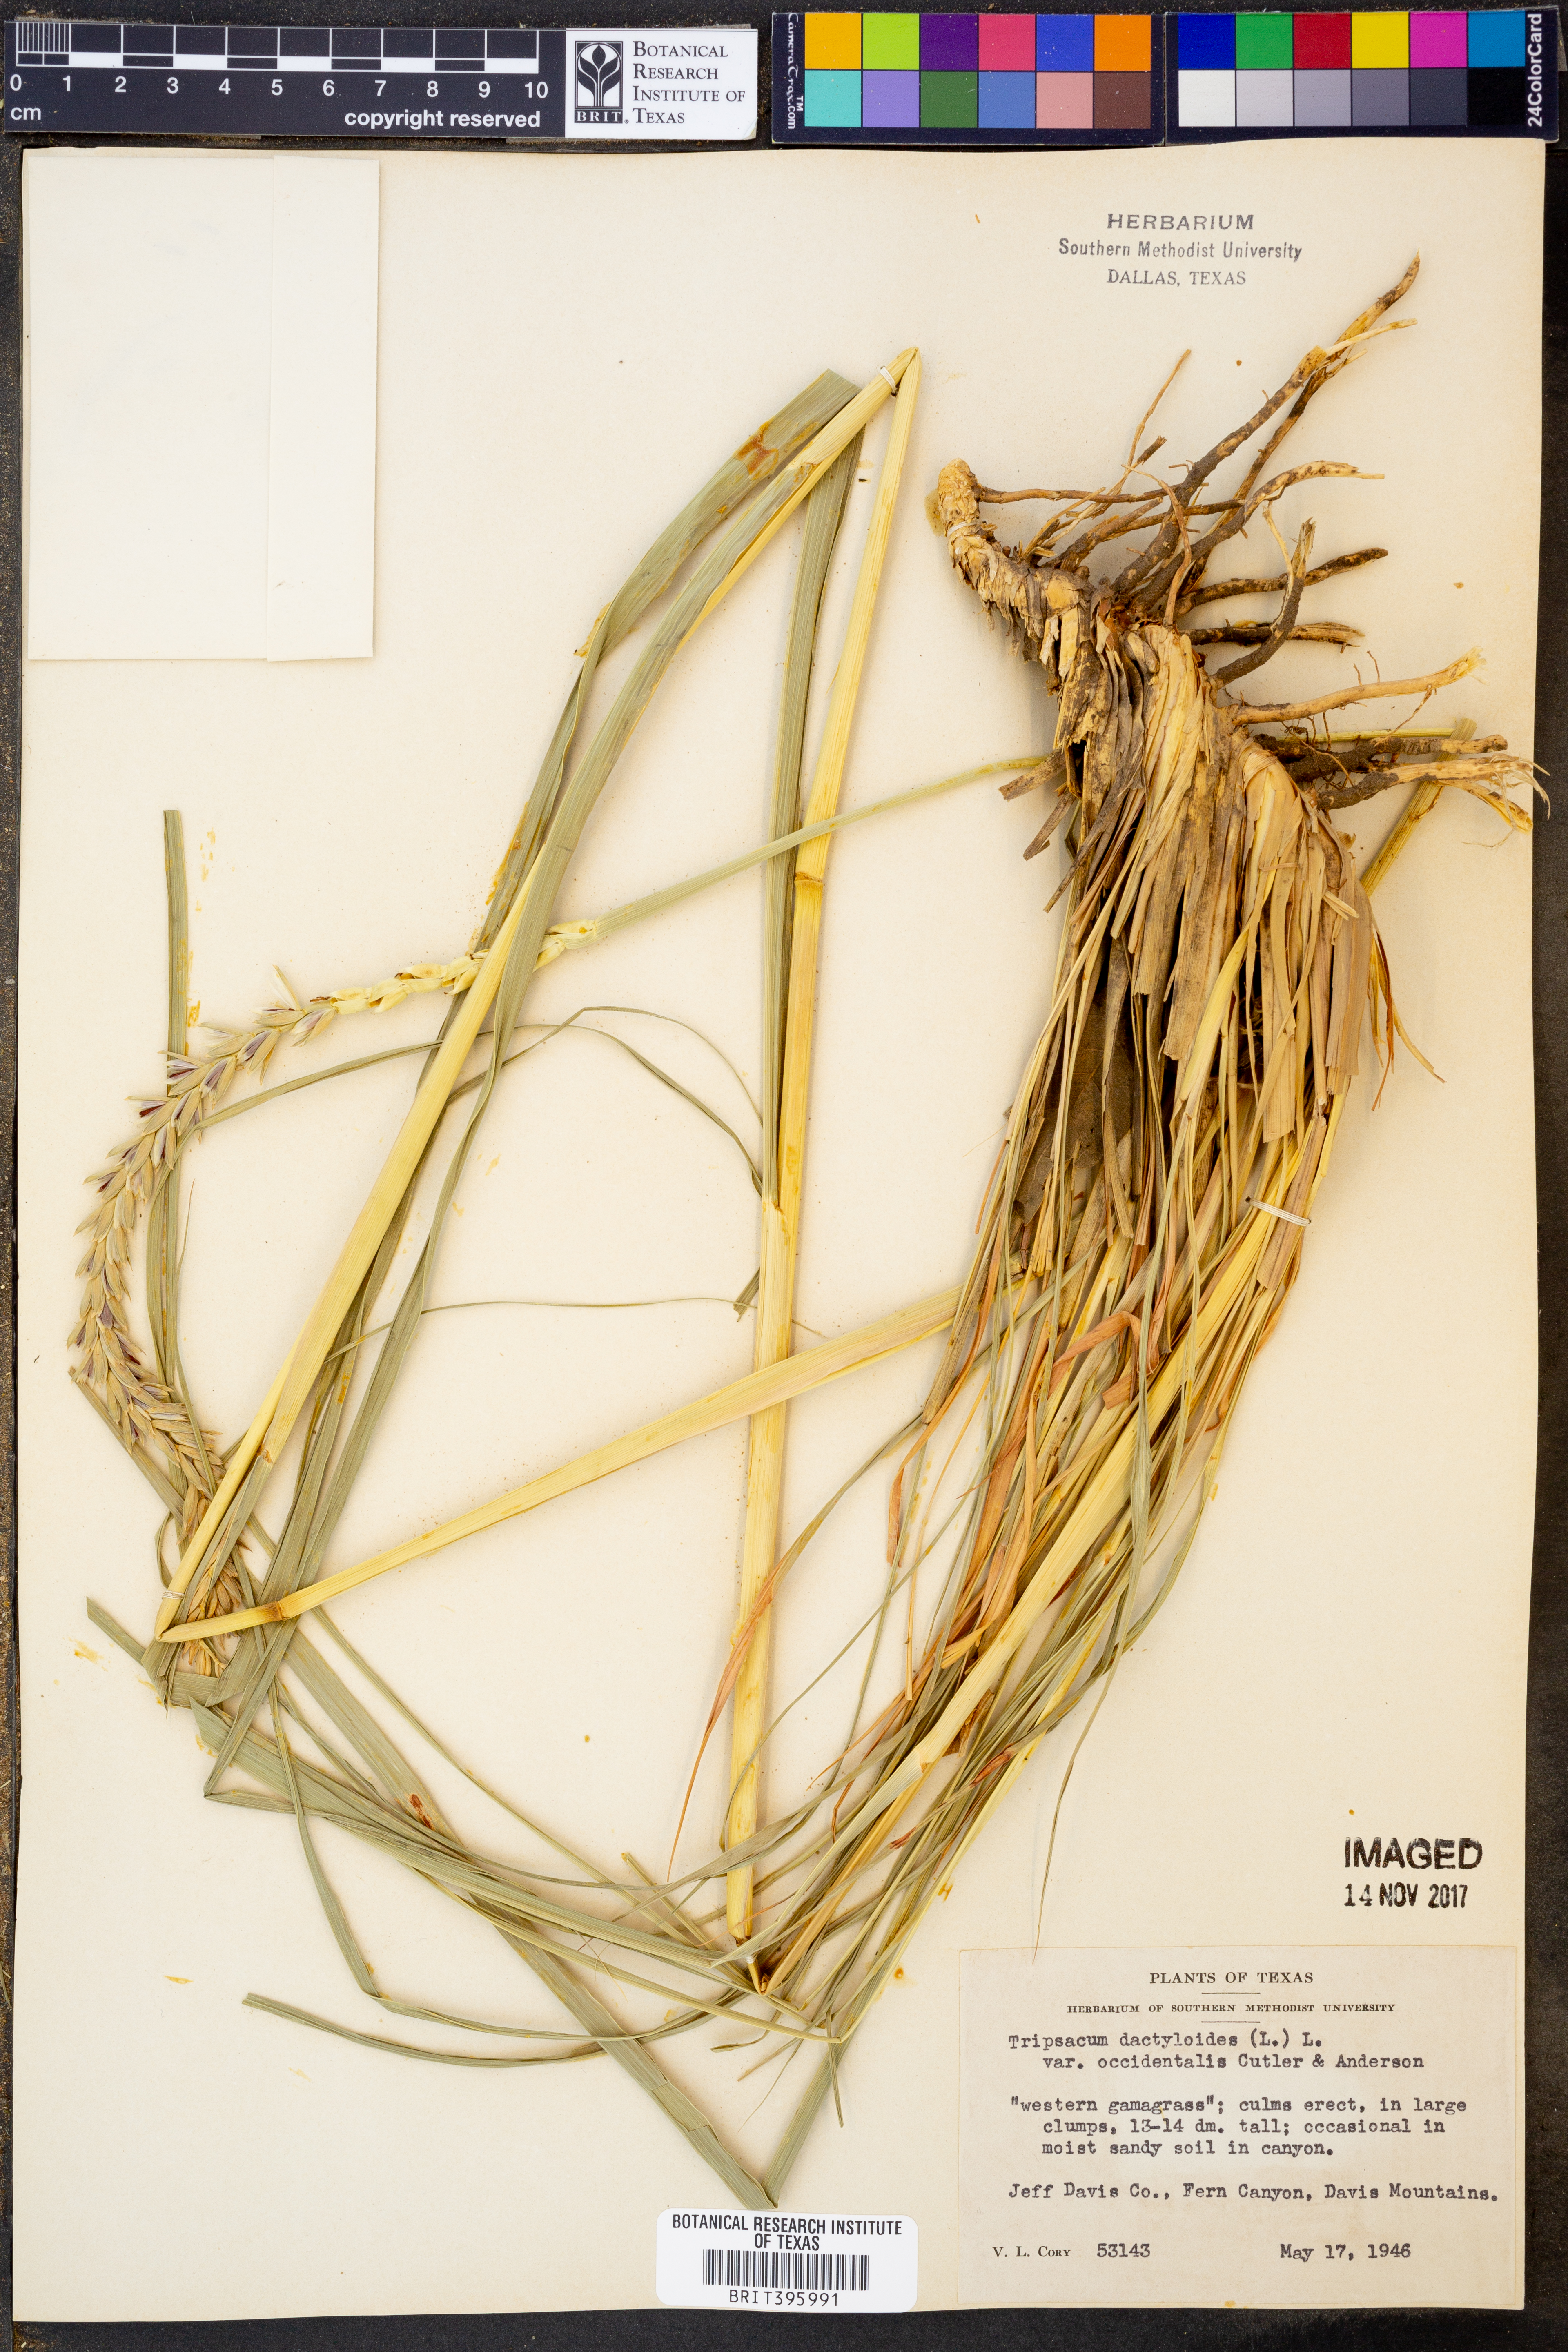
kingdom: Plantae
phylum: Tracheophyta
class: Liliopsida
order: Poales
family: Poaceae
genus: Tripsacum
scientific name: Tripsacum dactyloides
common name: Buffalo-grass
